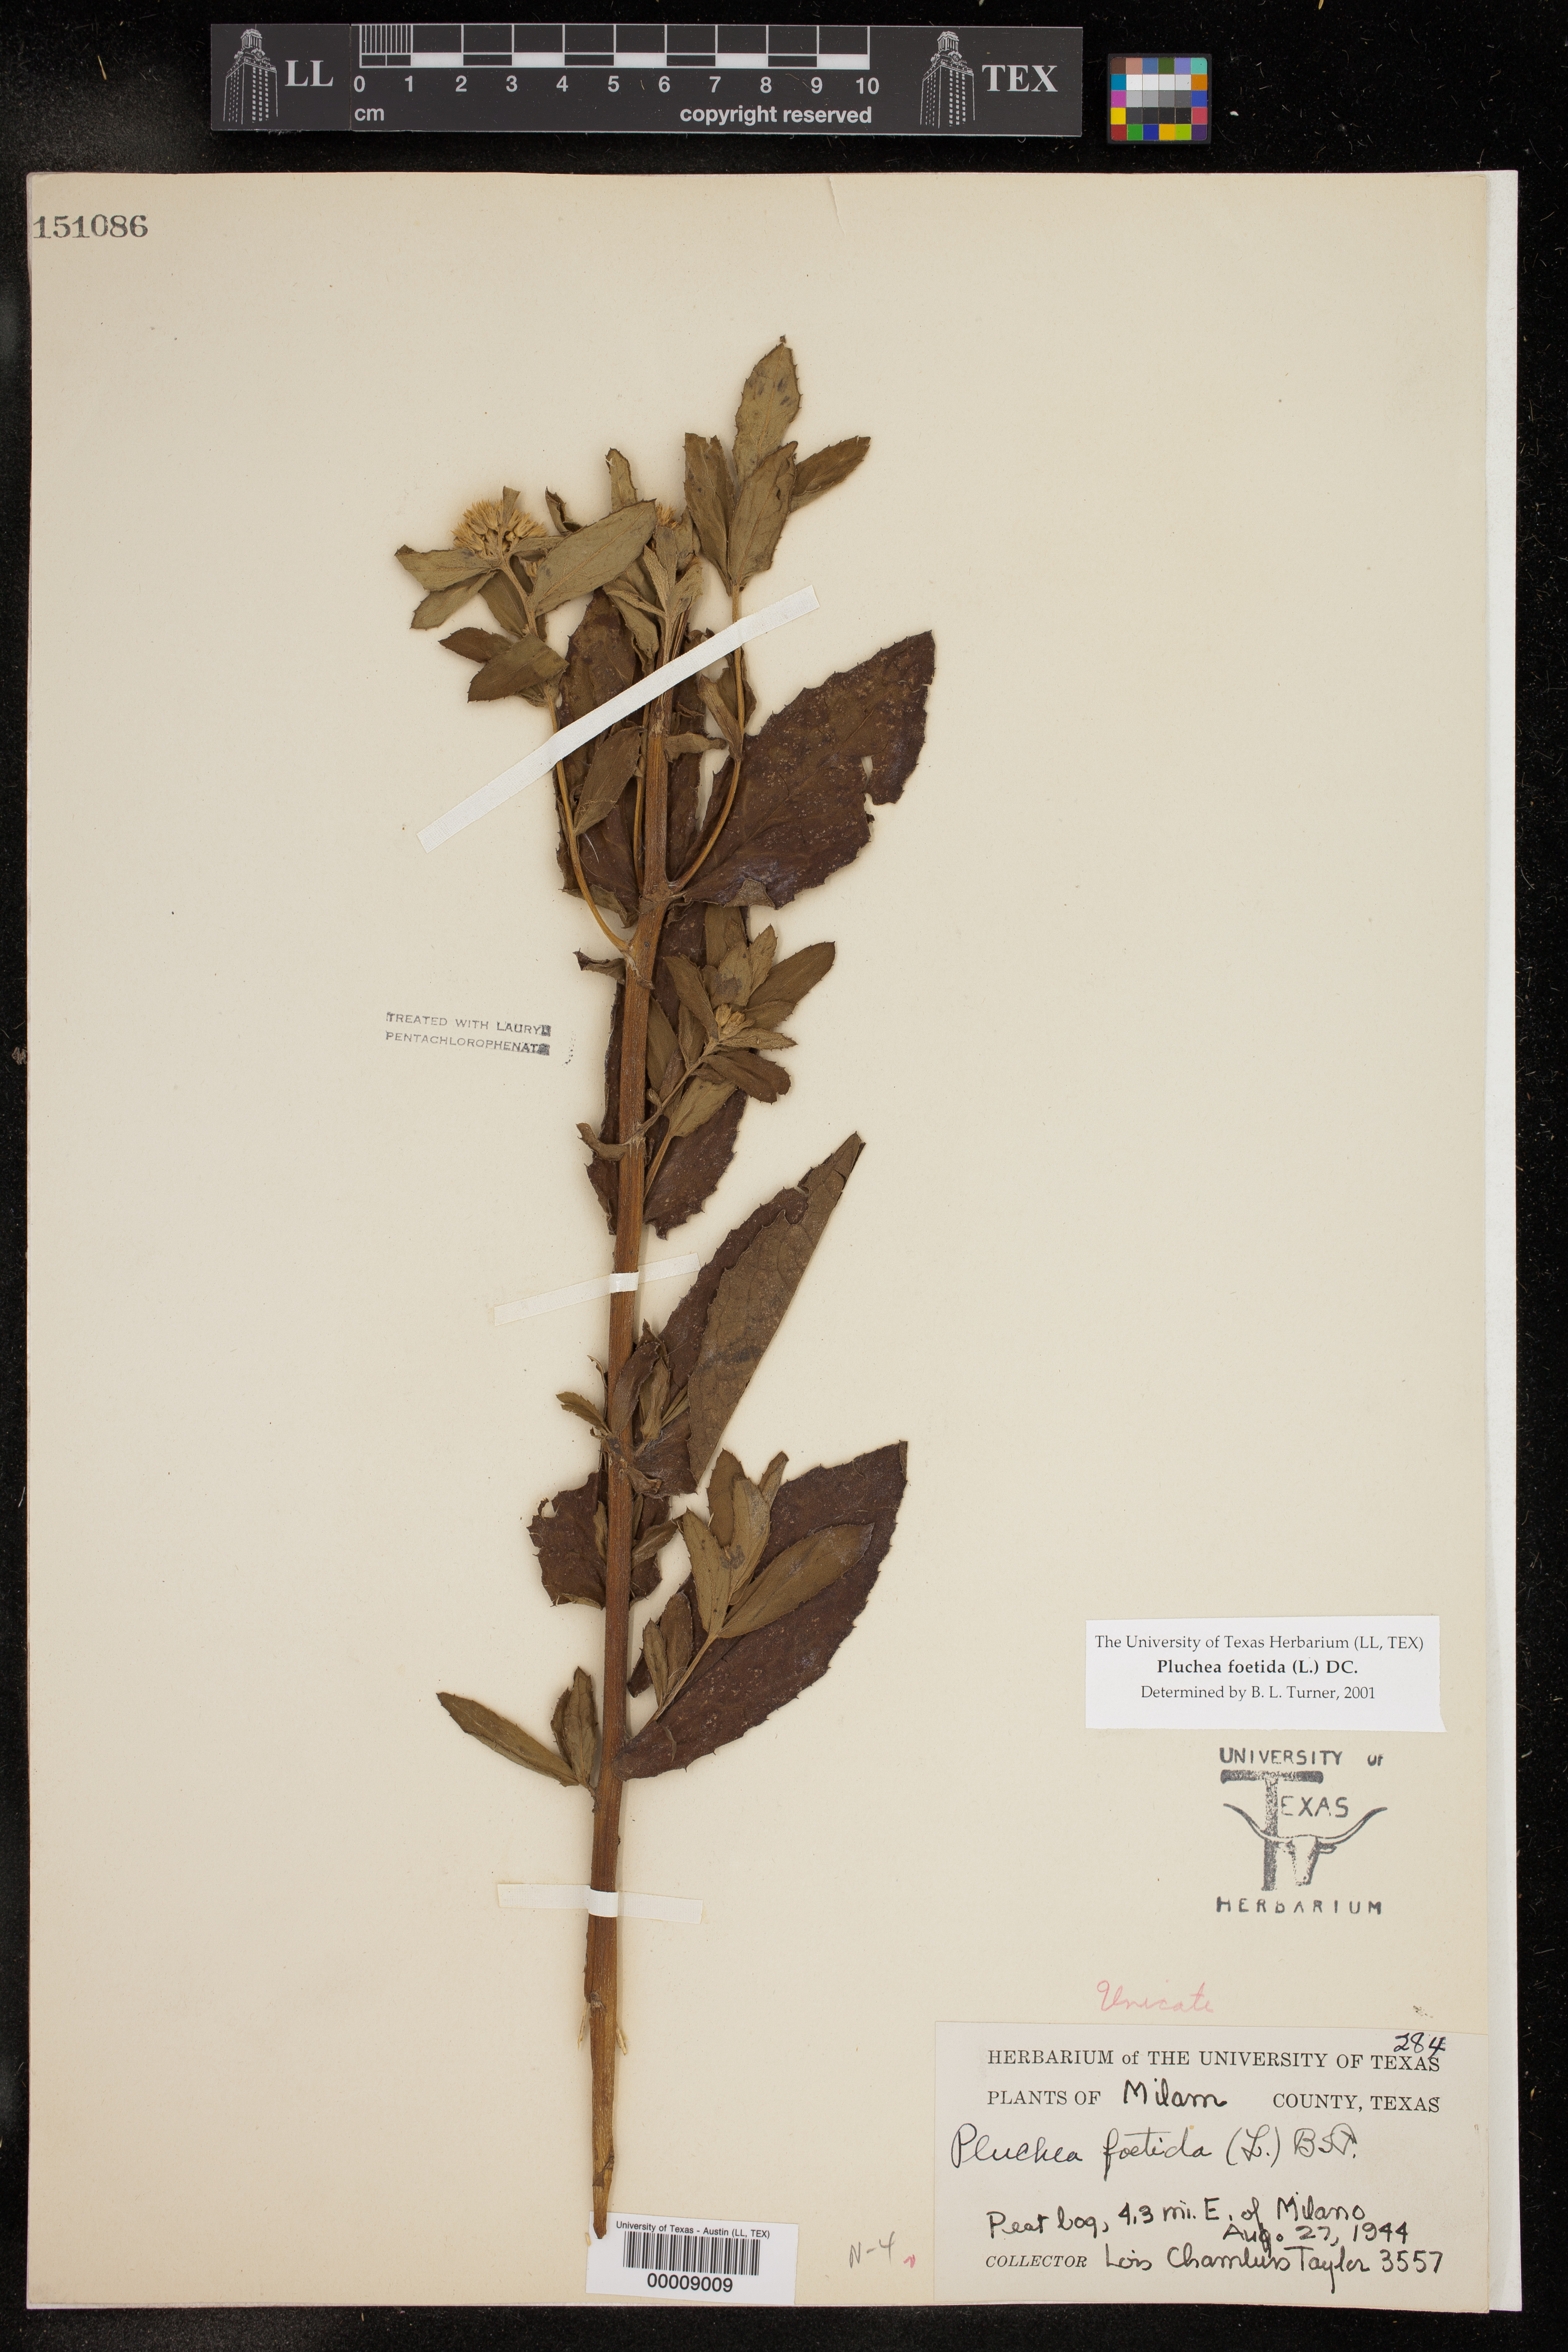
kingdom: Plantae
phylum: Tracheophyta
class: Magnoliopsida
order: Asterales
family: Asteraceae
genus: Pluchea
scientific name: Pluchea foetida
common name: Stinking camphorweed
